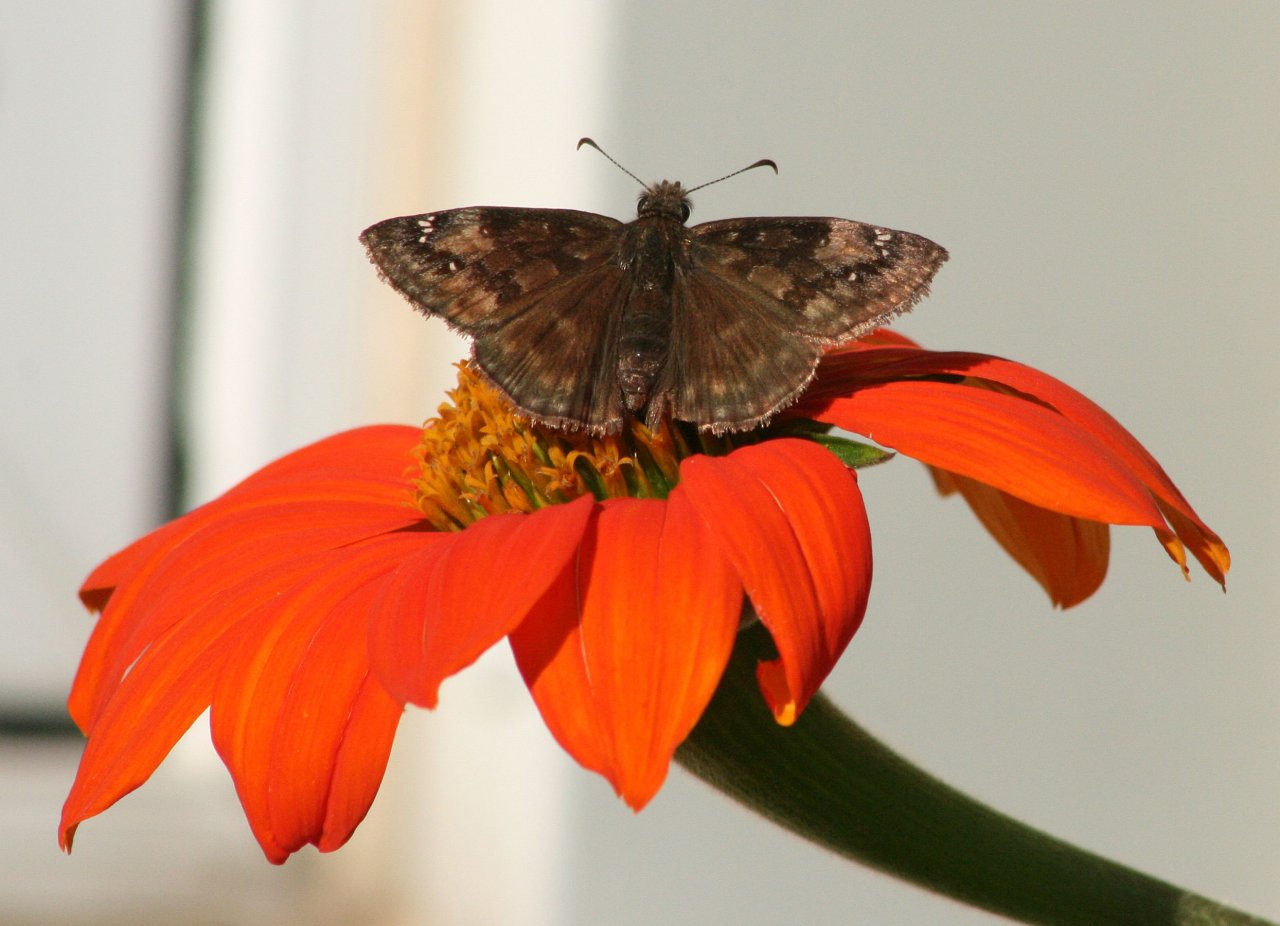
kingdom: Animalia
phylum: Arthropoda
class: Insecta
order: Lepidoptera
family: Hesperiidae
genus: Gesta
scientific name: Gesta
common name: Wild Indigo Duskywing
